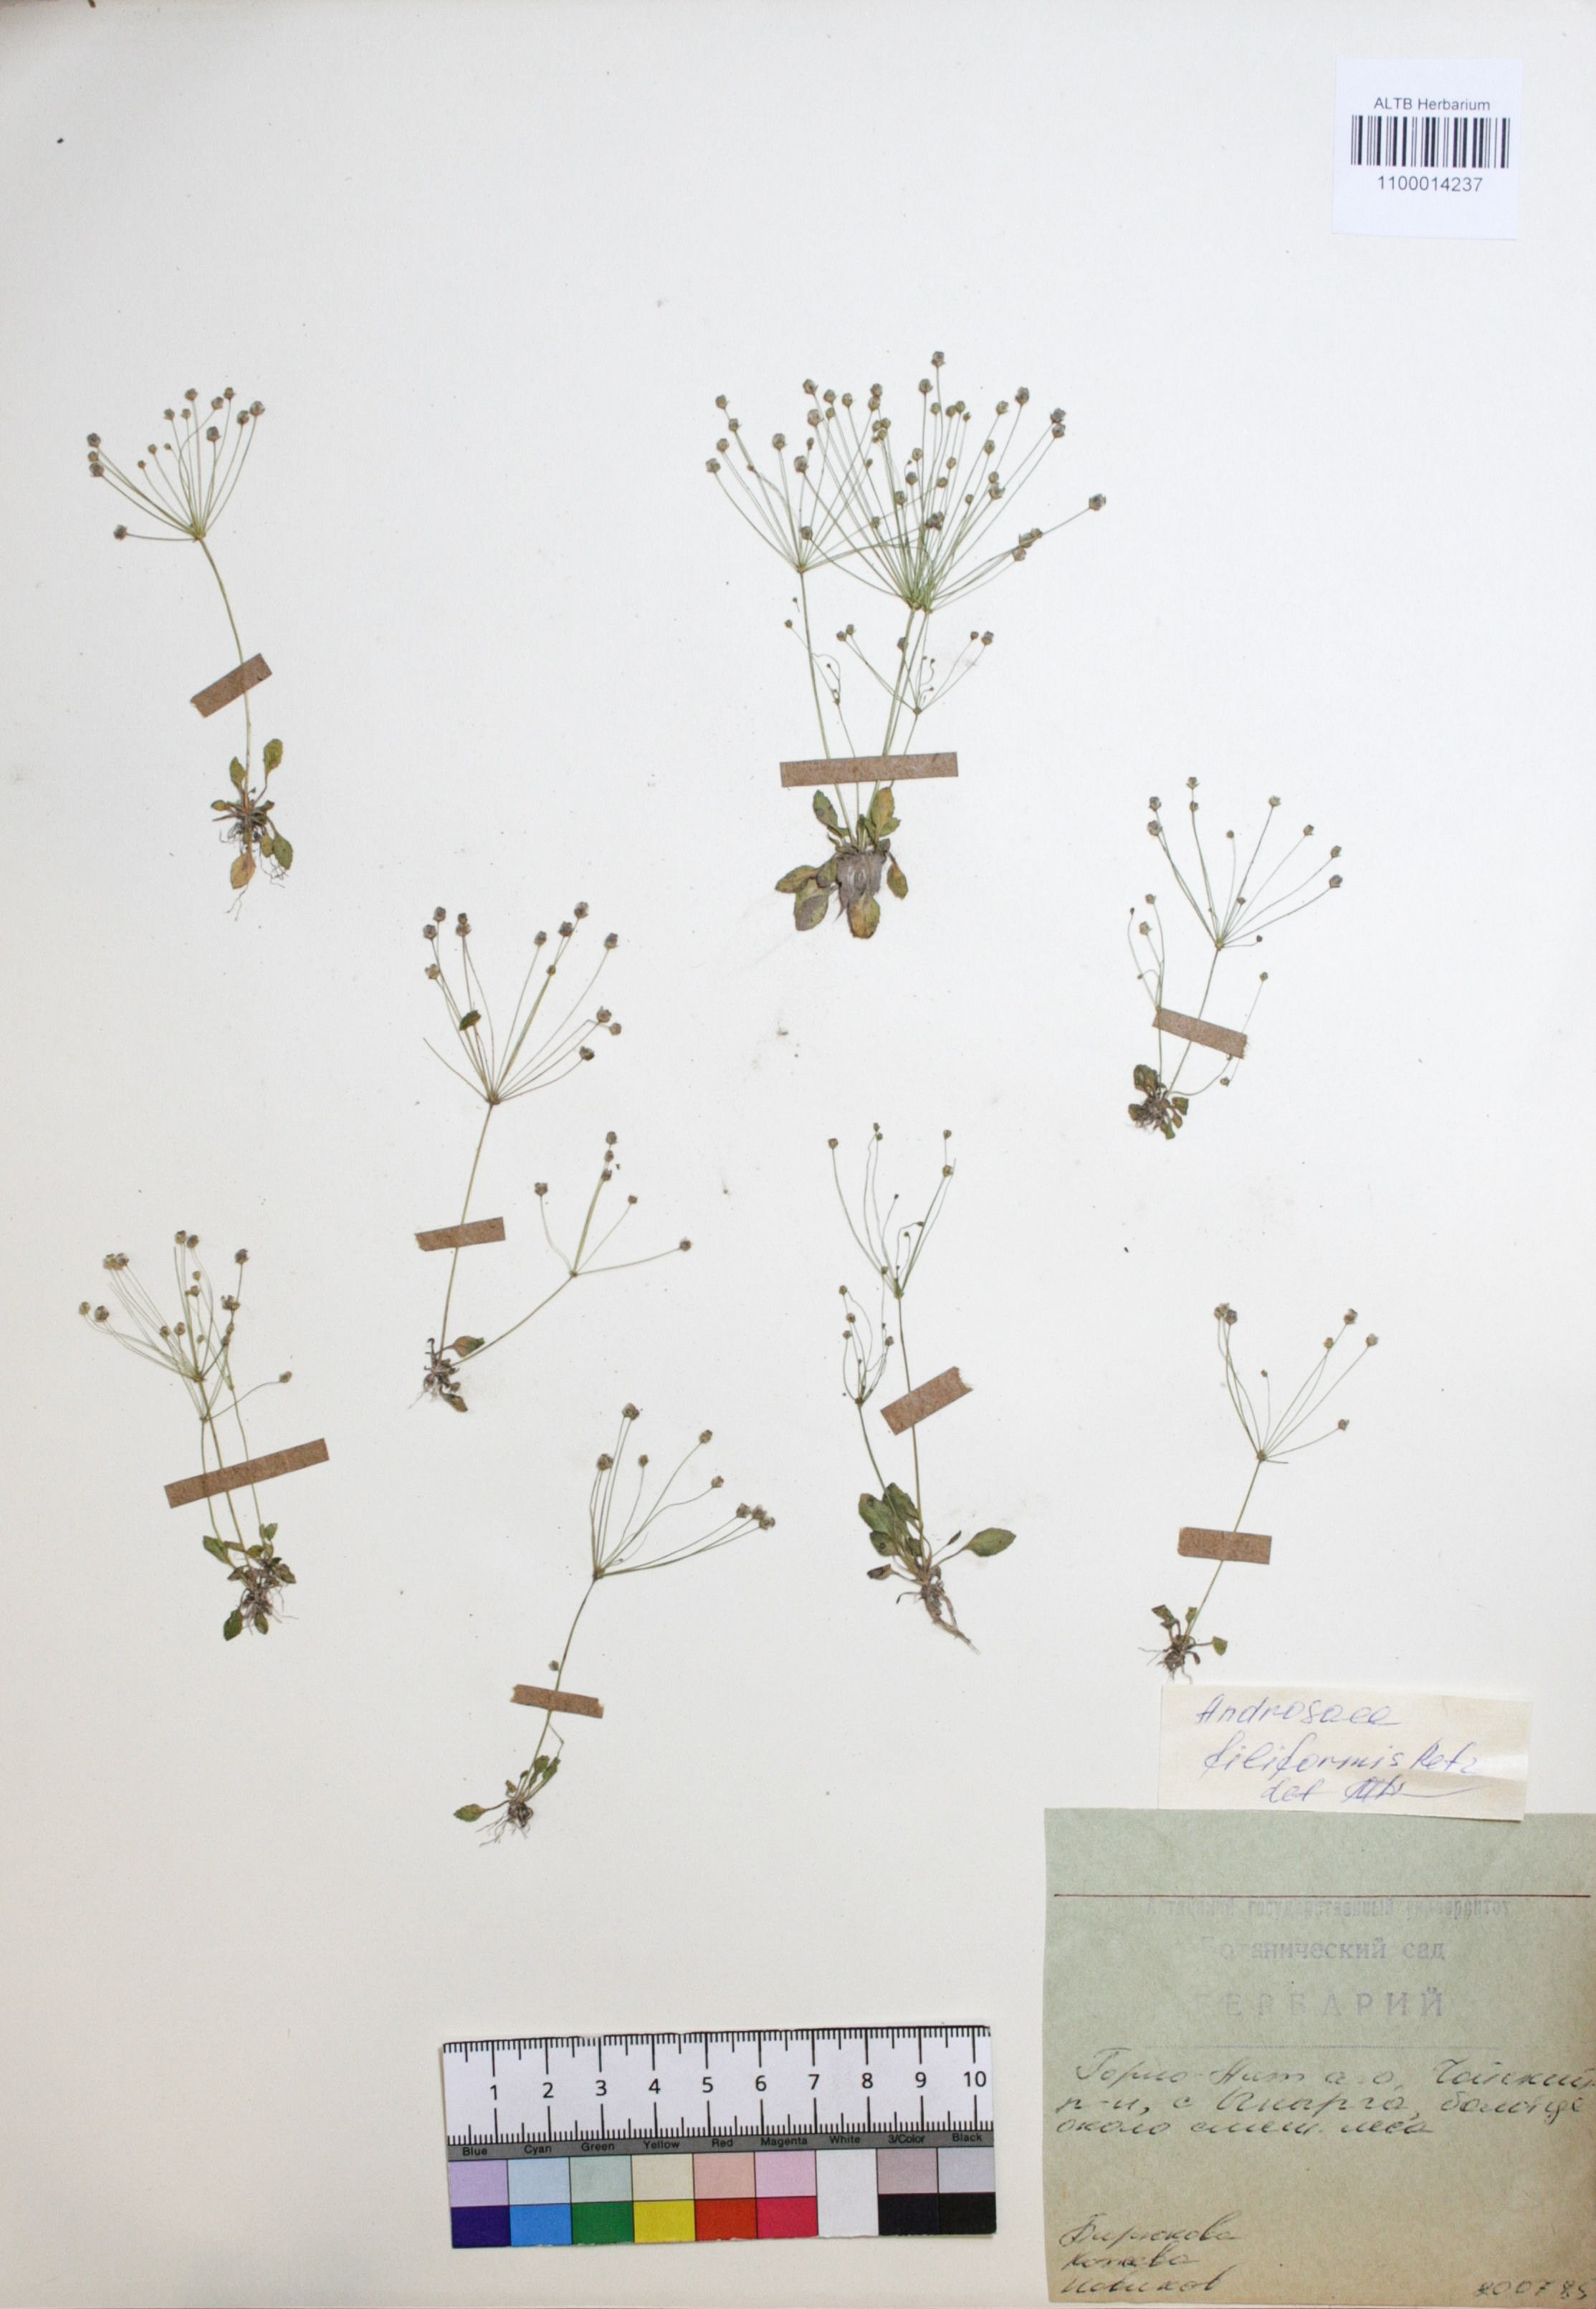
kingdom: Plantae
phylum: Tracheophyta
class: Magnoliopsida
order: Ericales
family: Primulaceae
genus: Androsace
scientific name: Androsace filiformis
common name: Filiform rock jasmine
